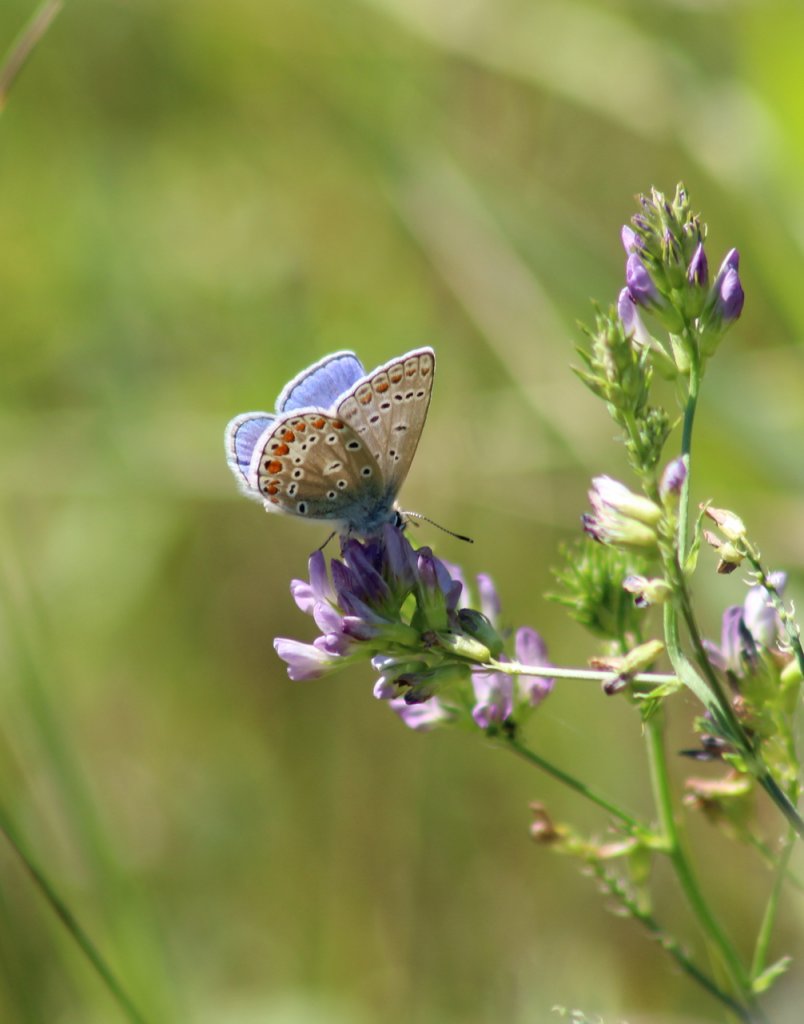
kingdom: Animalia
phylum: Arthropoda
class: Insecta
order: Lepidoptera
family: Lycaenidae
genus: Polyommatus
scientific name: Polyommatus icarus
